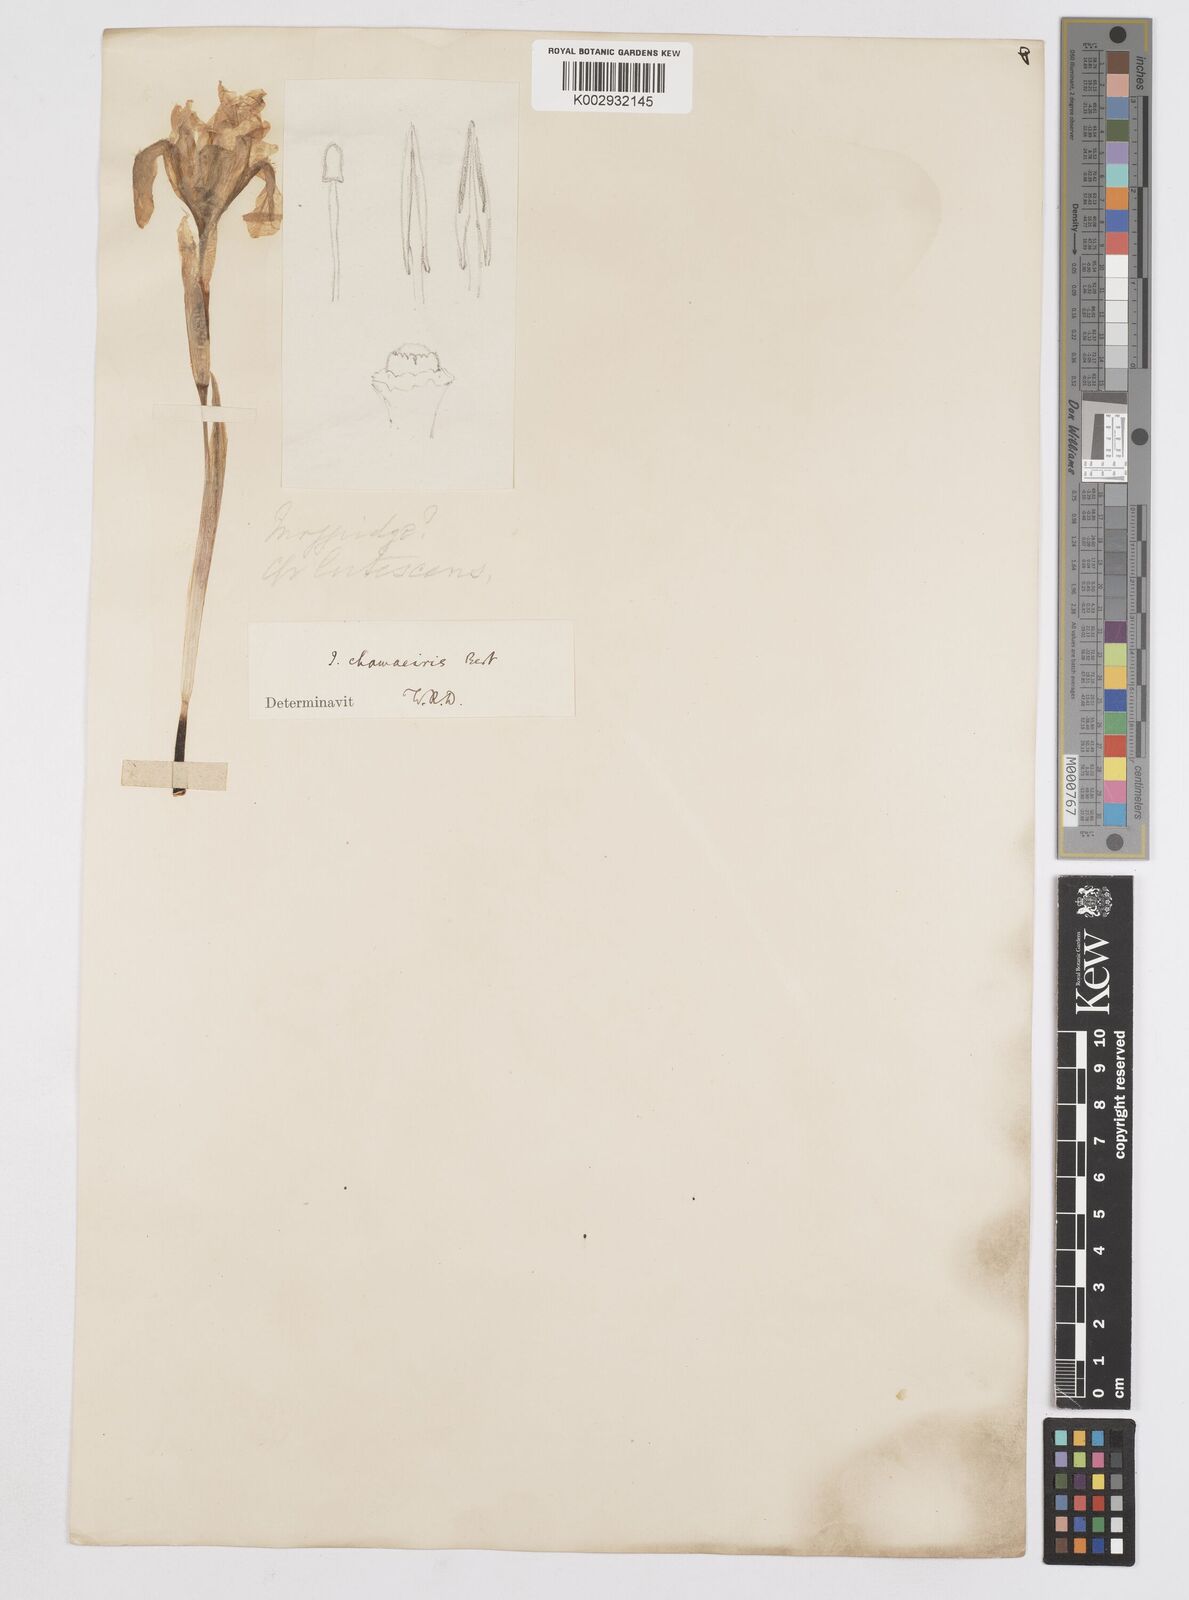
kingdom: Plantae
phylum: Tracheophyta
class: Liliopsida
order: Asparagales
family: Iridaceae
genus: Iris
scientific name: Iris lutescens
